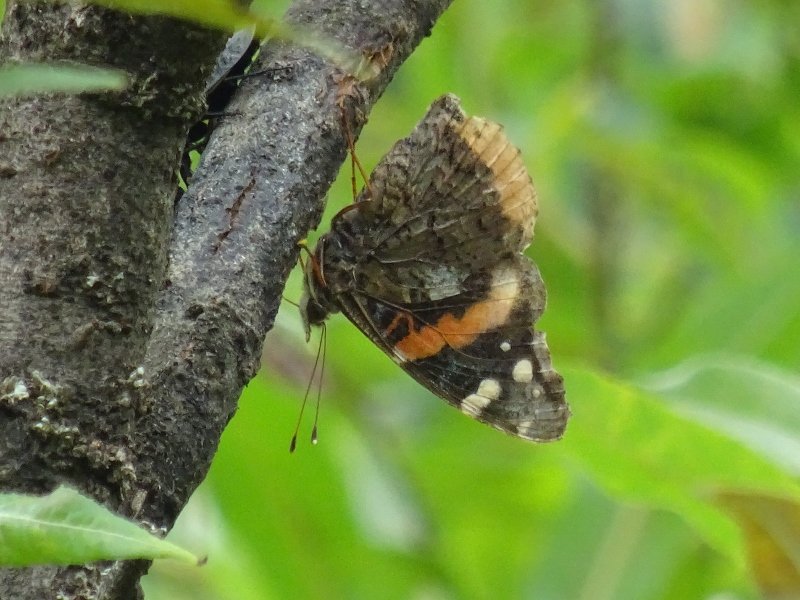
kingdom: Animalia
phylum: Arthropoda
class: Insecta
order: Lepidoptera
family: Nymphalidae
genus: Vanessa
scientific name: Vanessa atalanta
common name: Red Admiral
